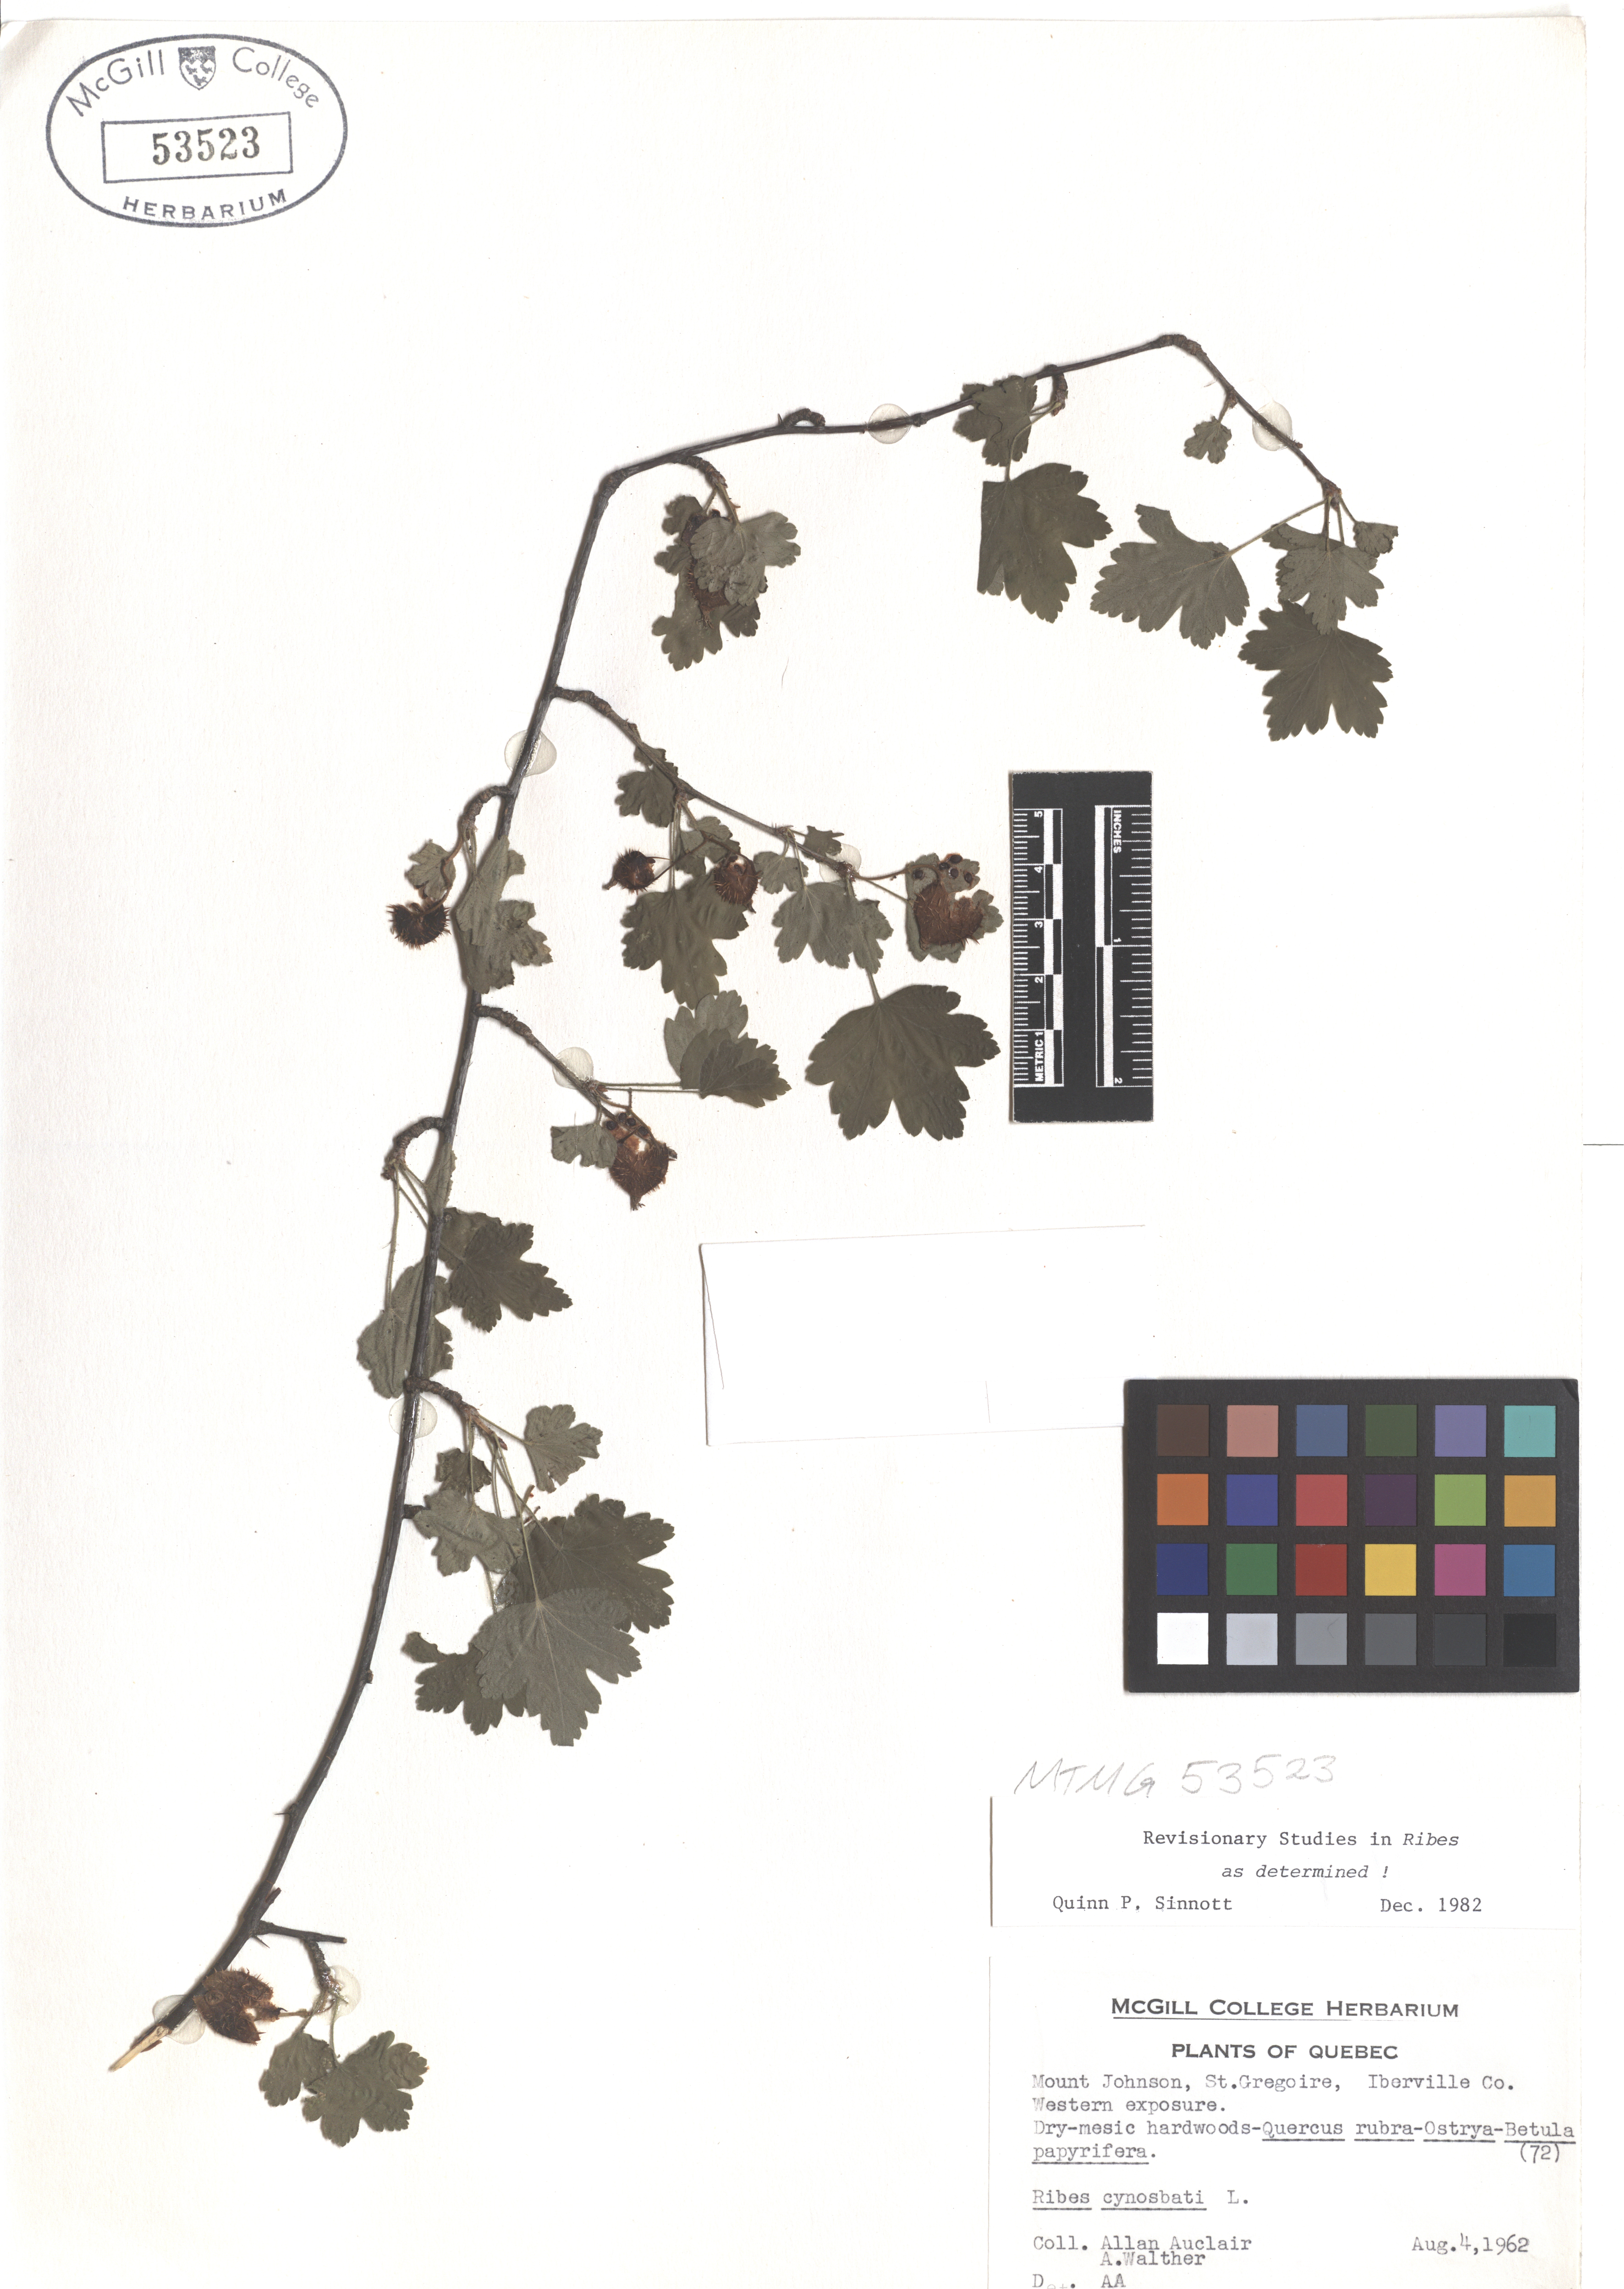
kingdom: Plantae
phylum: Tracheophyta
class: Magnoliopsida
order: Saxifragales
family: Grossulariaceae
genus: Ribes
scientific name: Ribes cynosbati
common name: American gooseberry
